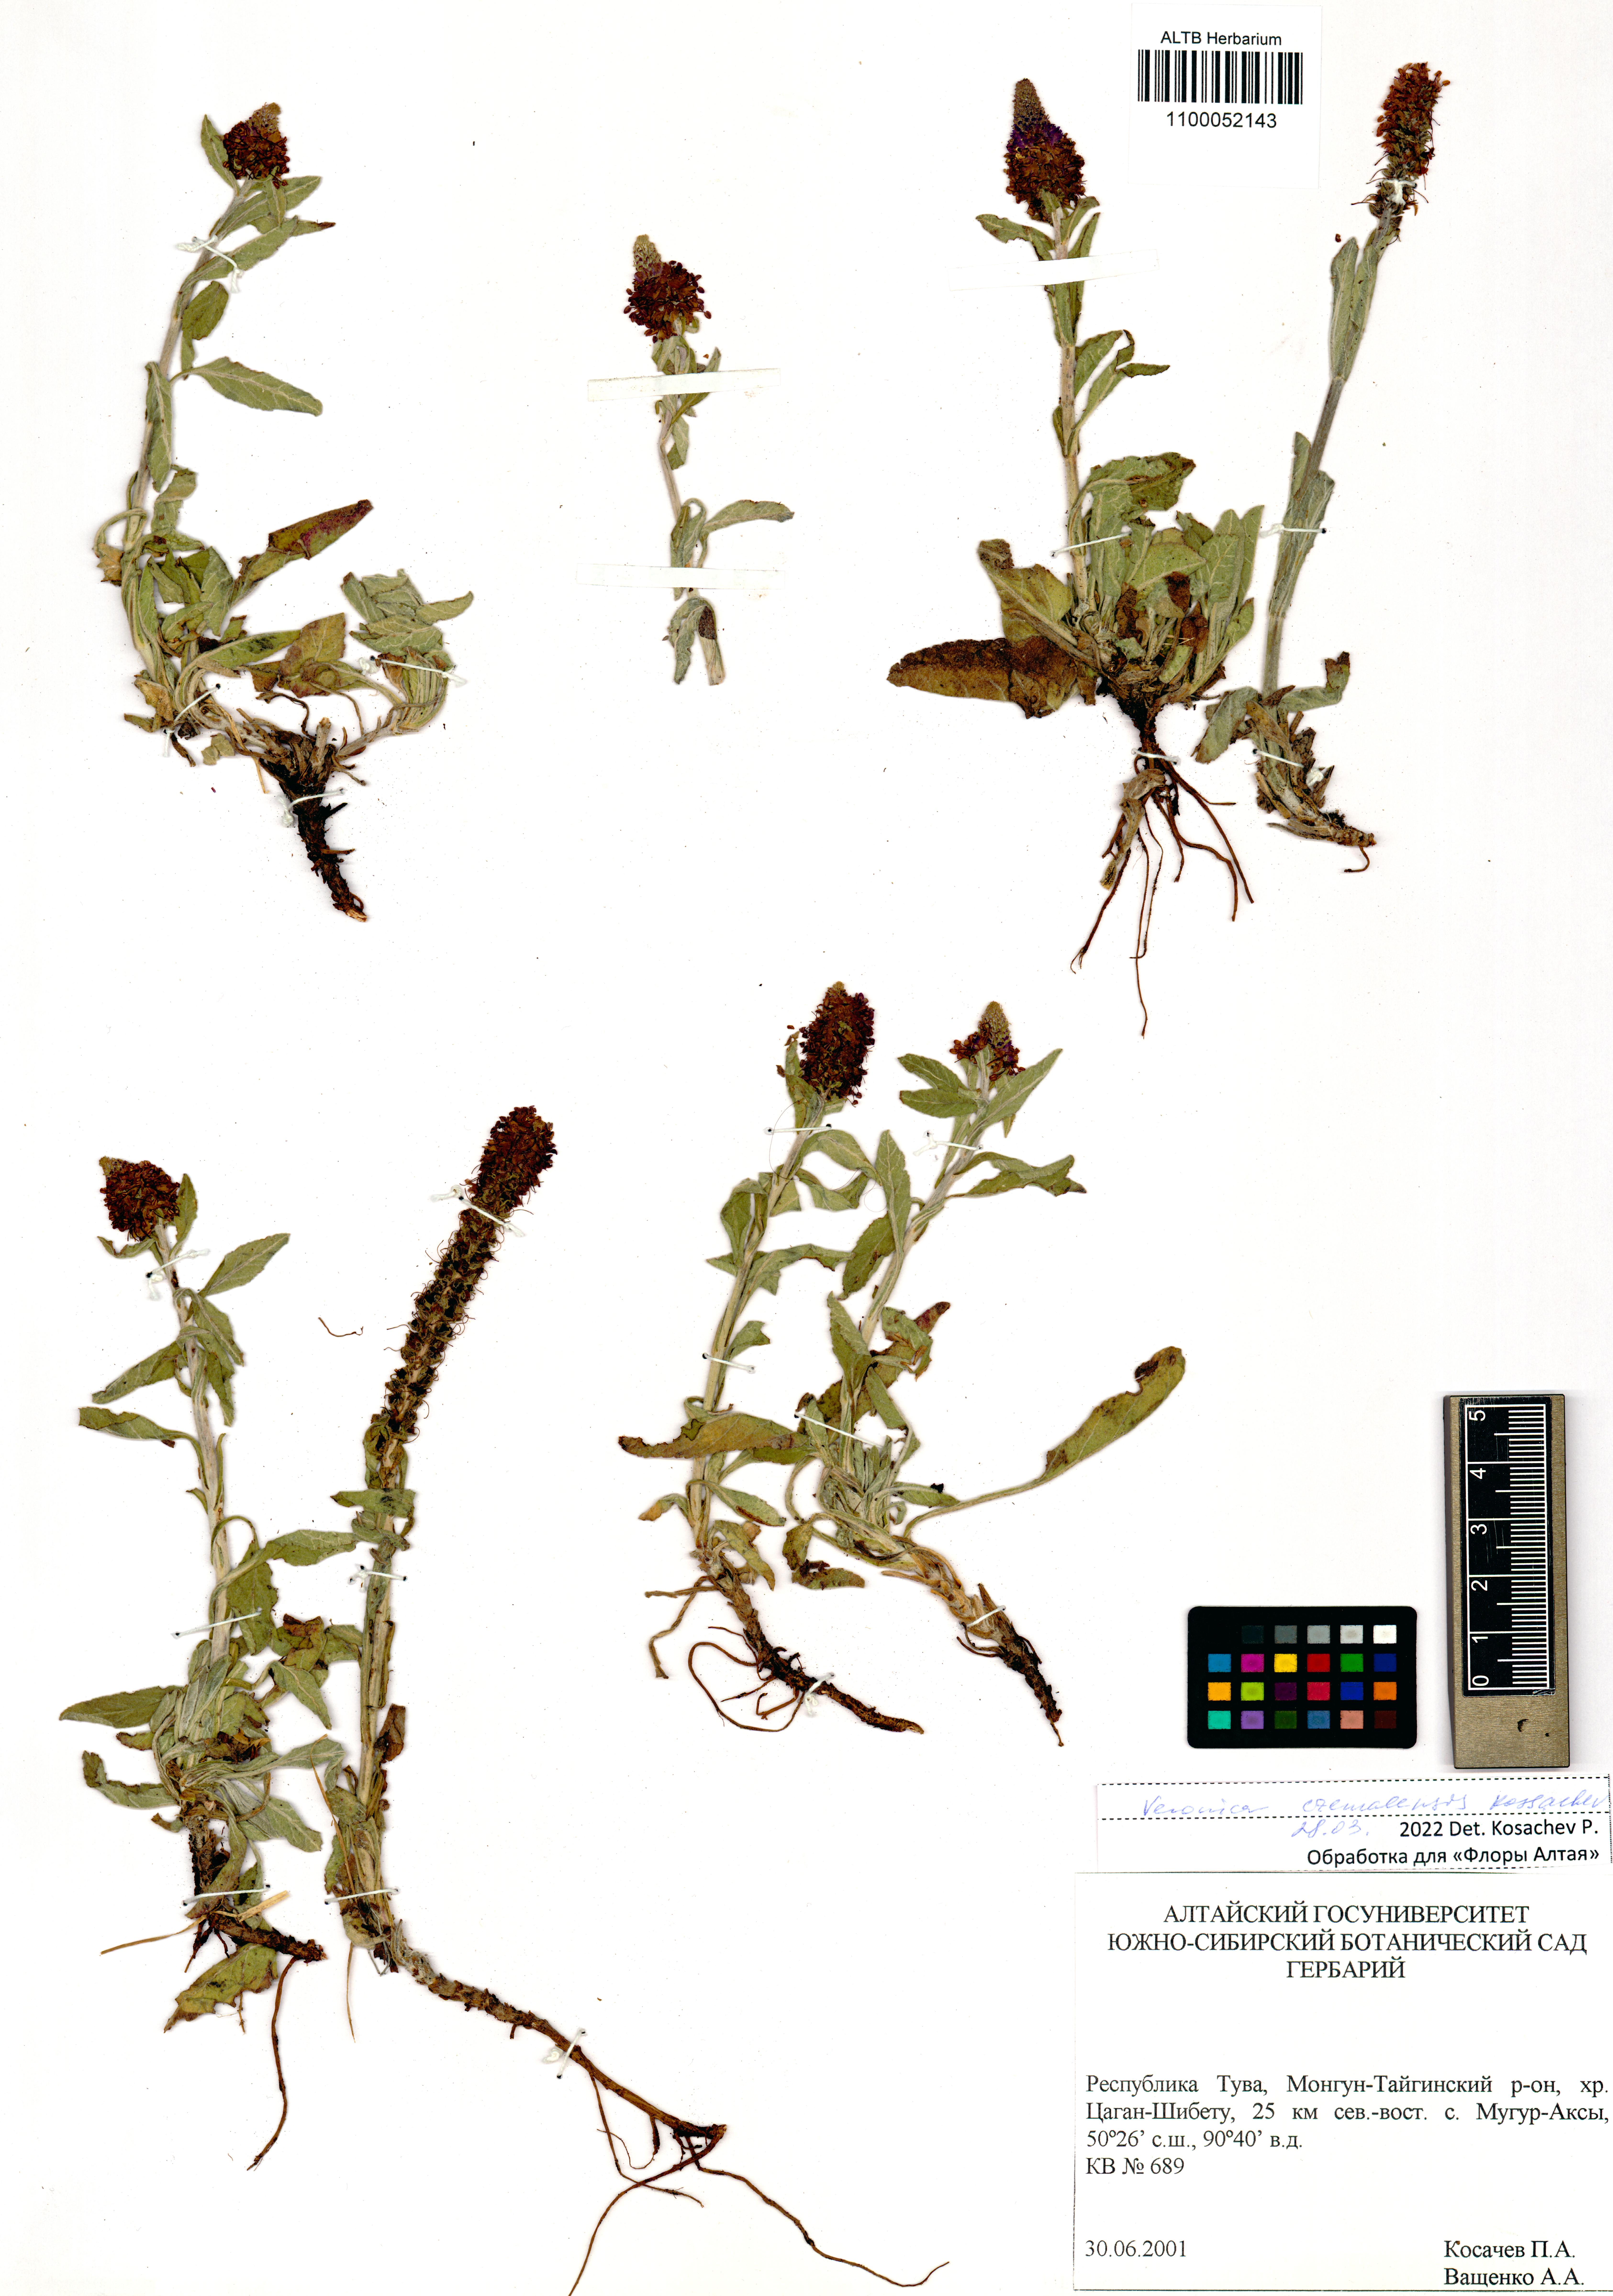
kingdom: Plantae
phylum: Tracheophyta
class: Magnoliopsida
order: Lamiales
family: Plantaginaceae
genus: Veronica
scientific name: Veronica czemalensis
